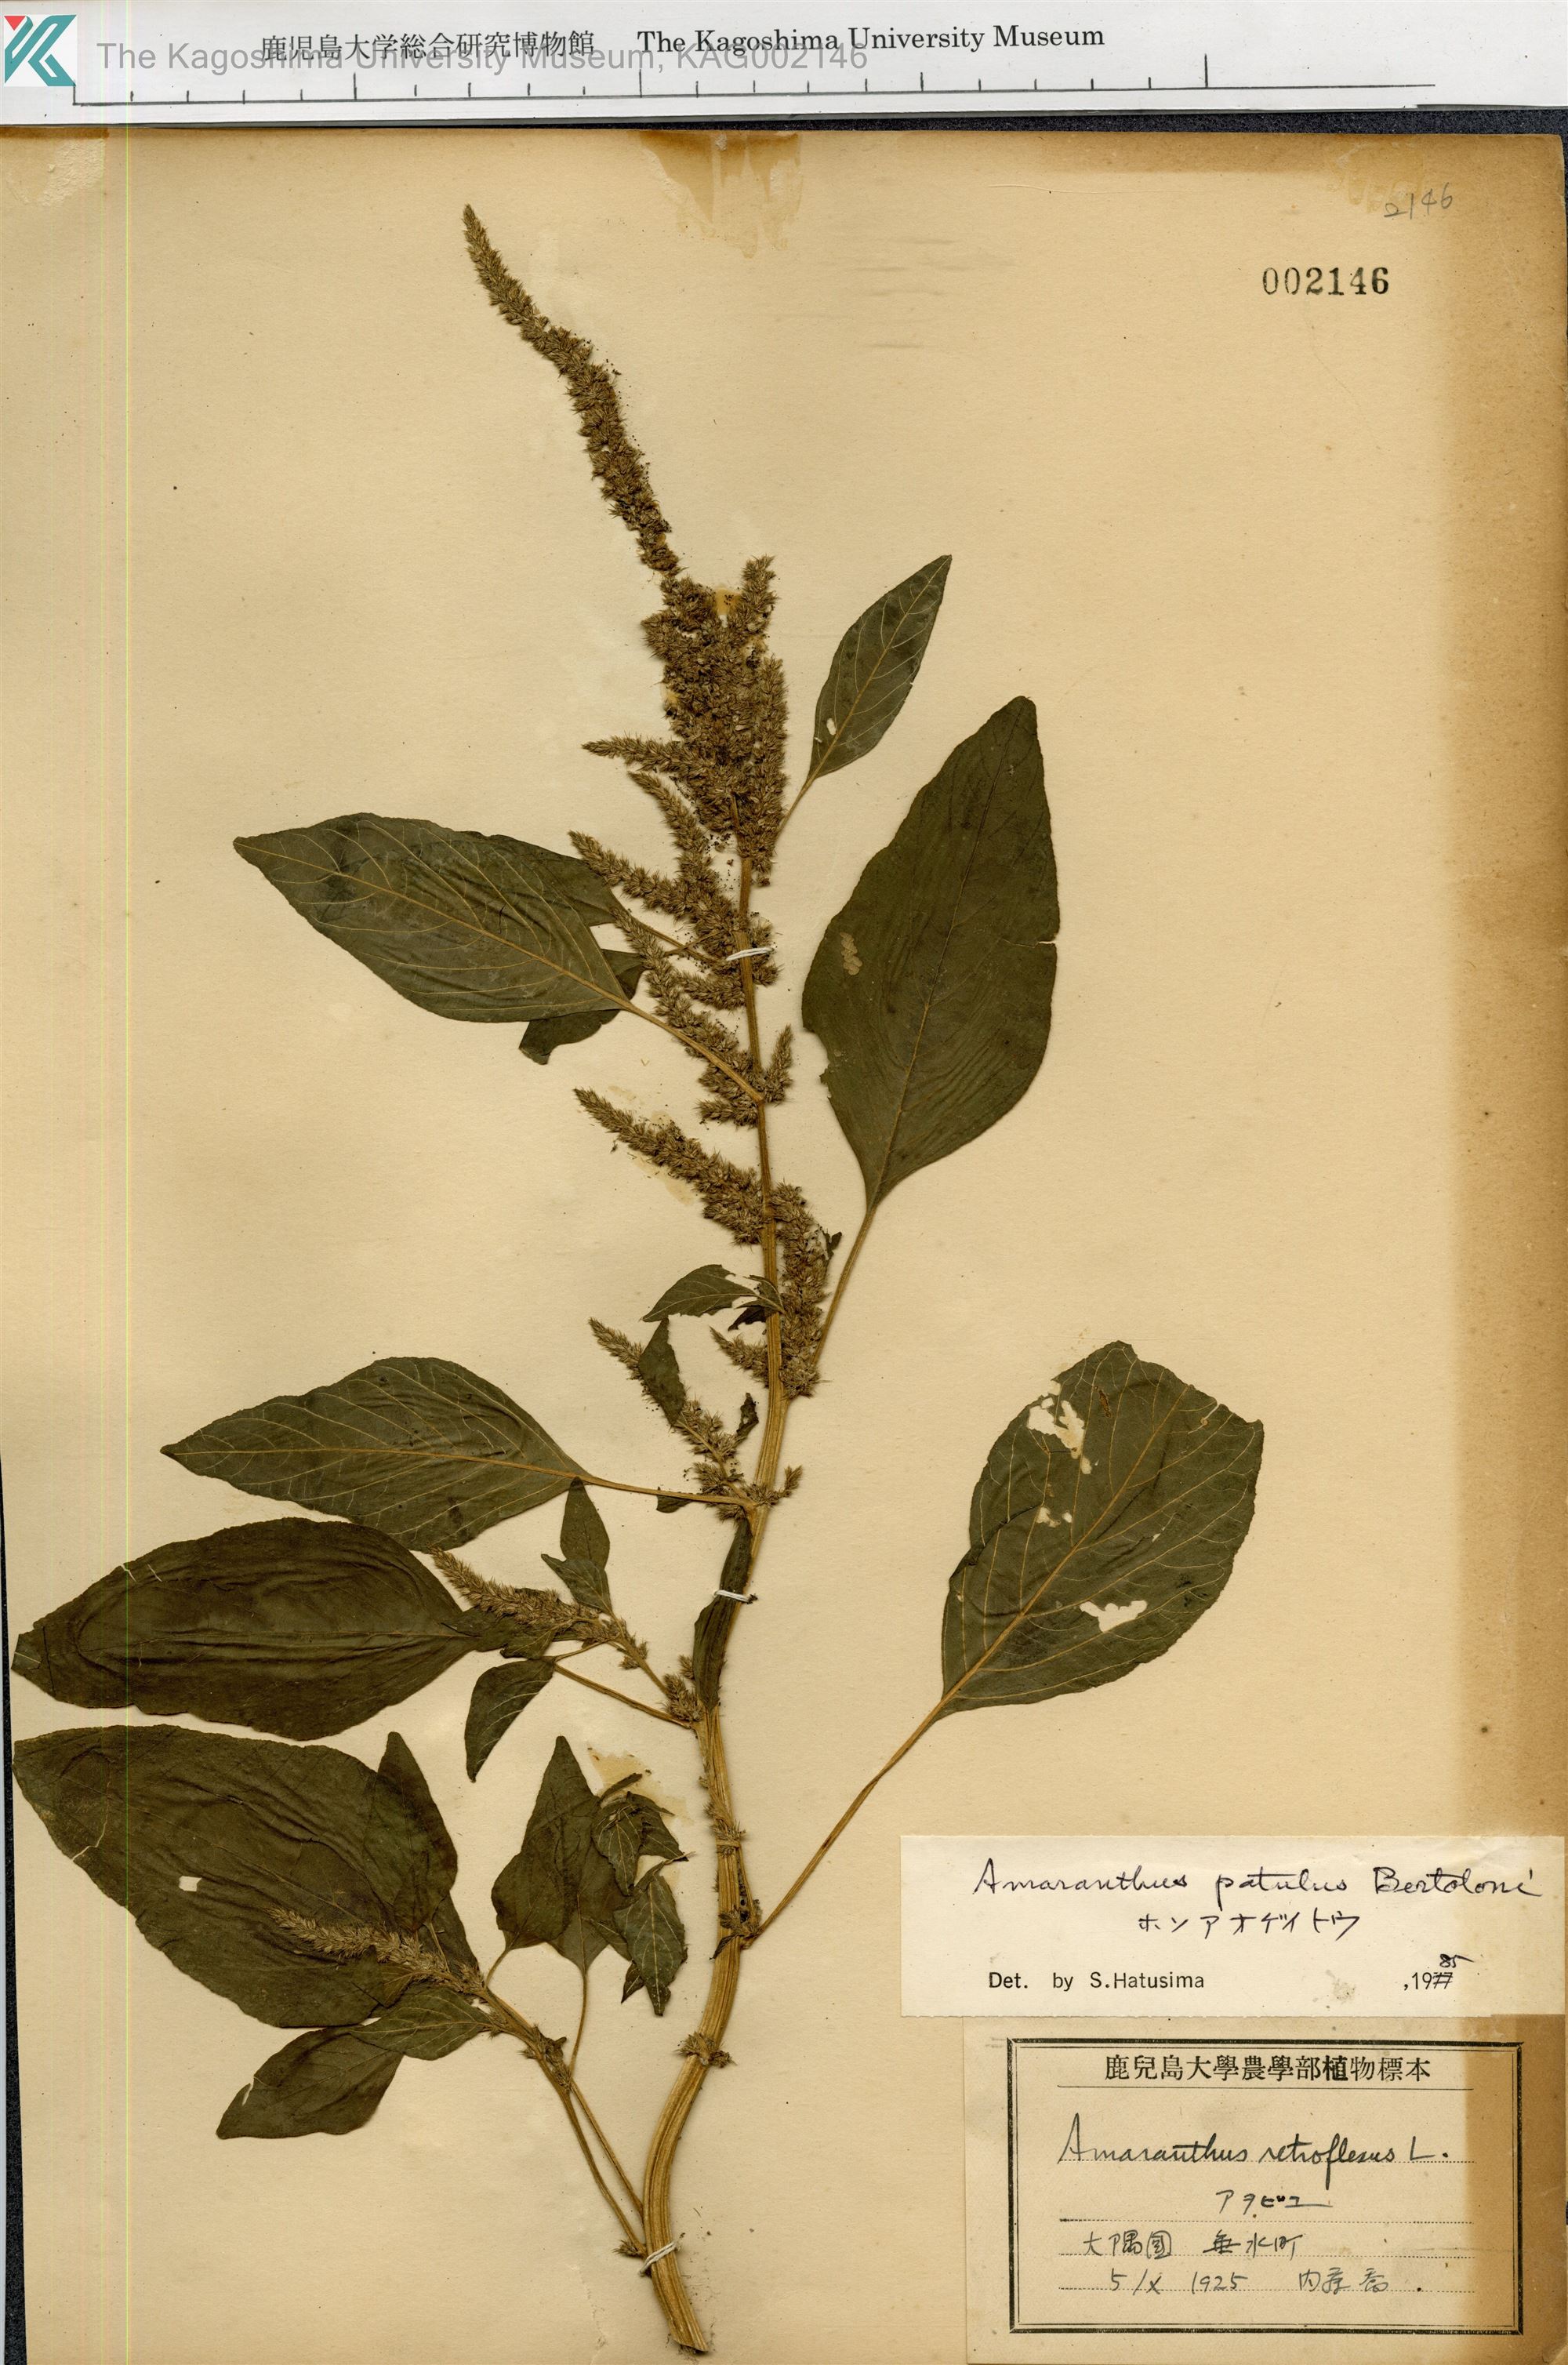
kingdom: Plantae
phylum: Tracheophyta
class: Magnoliopsida
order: Caryophyllales
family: Amaranthaceae
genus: Amaranthus
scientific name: Amaranthus hybridus
